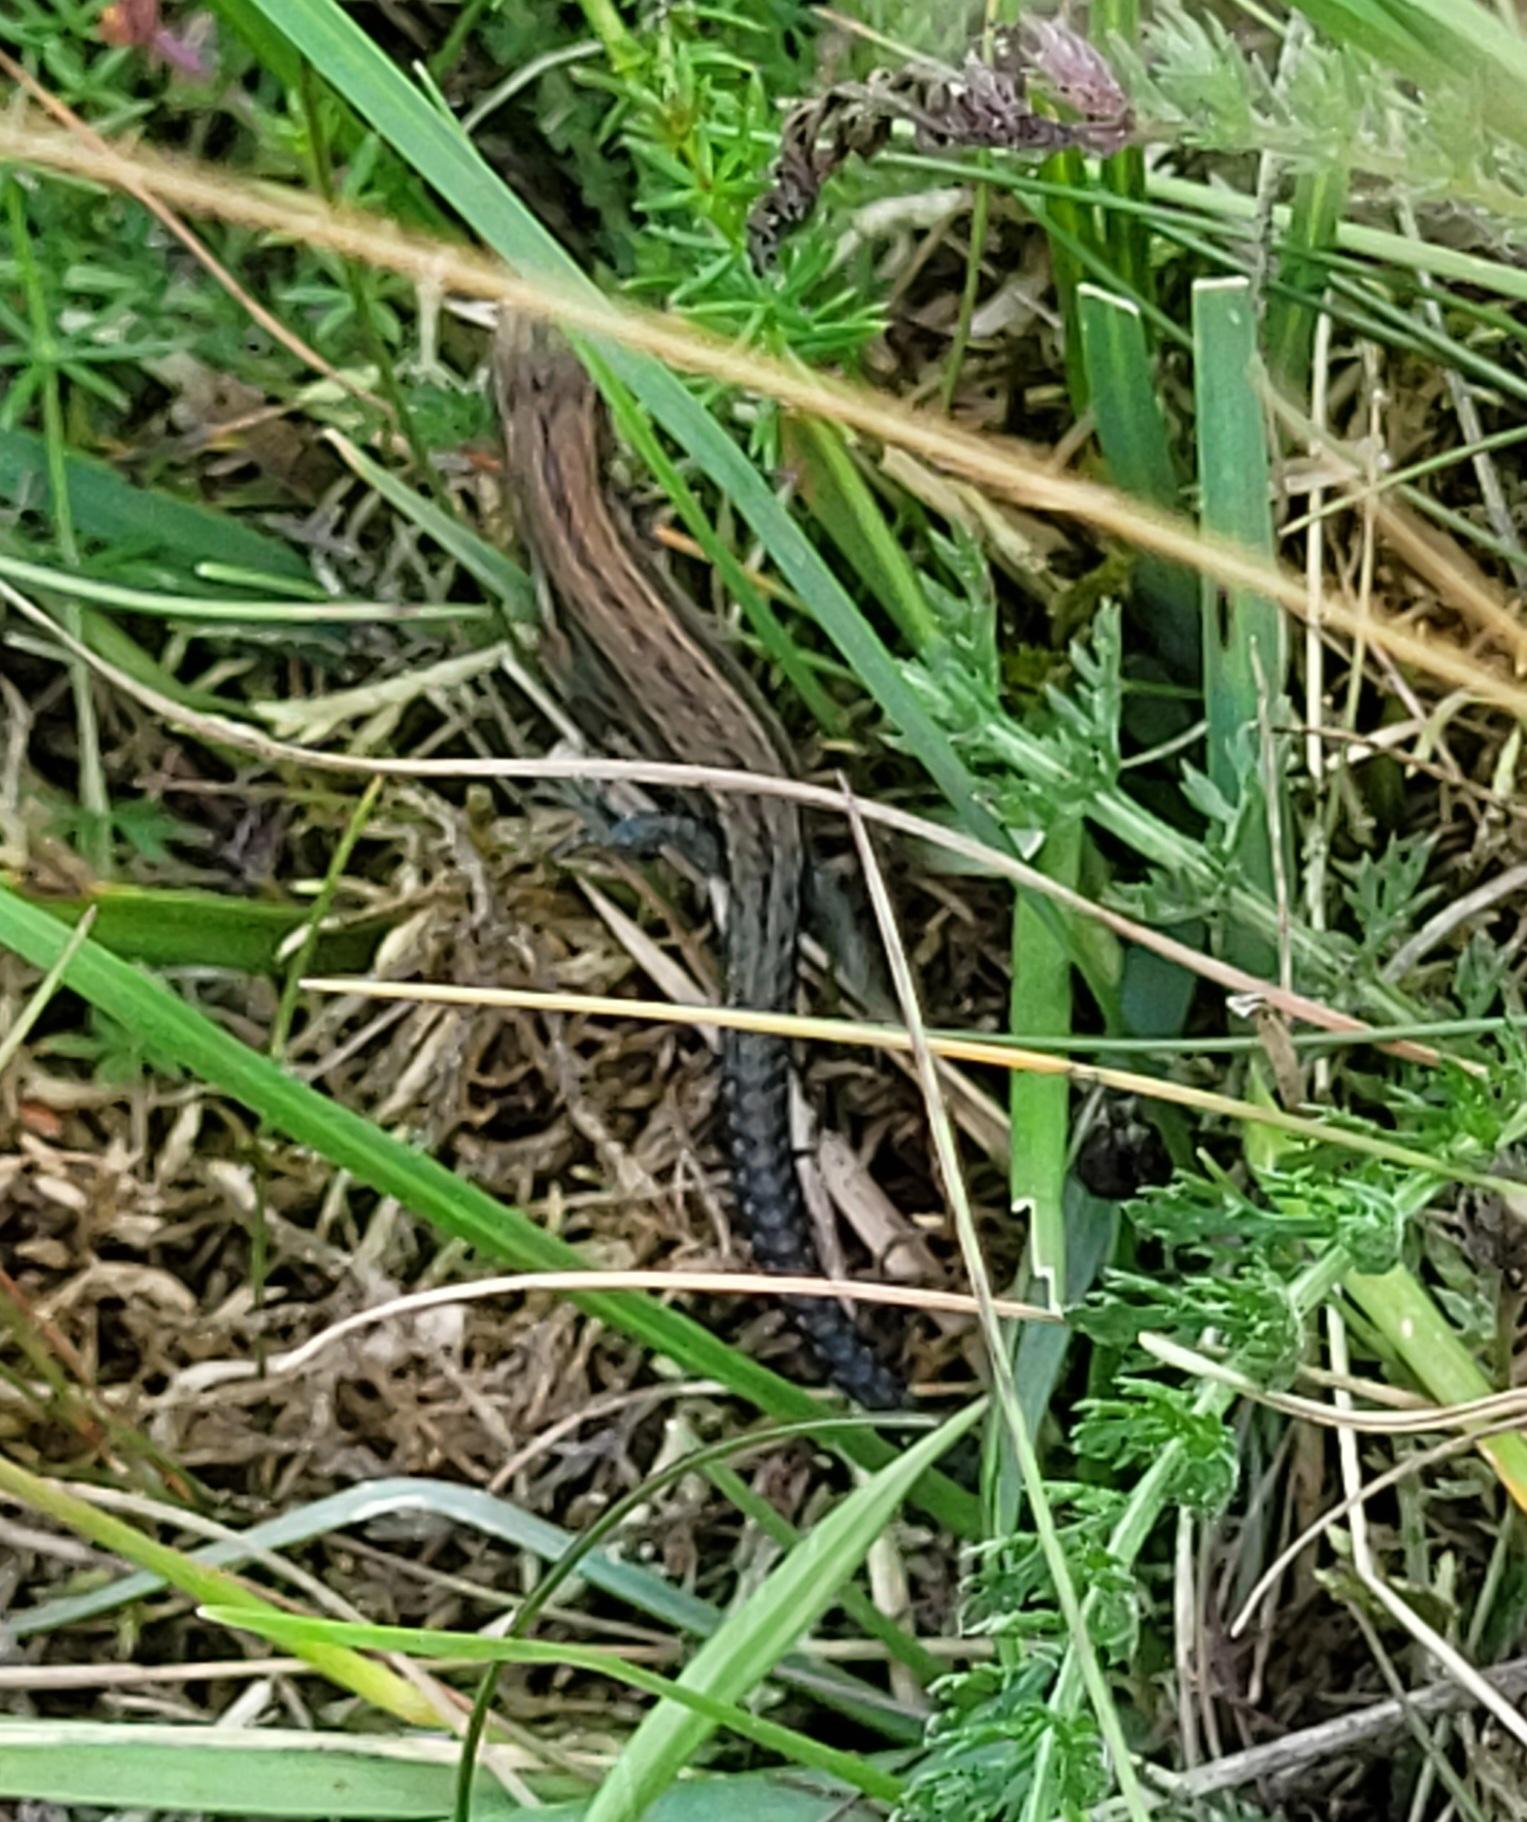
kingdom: Animalia
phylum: Chordata
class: Squamata
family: Lacertidae
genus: Zootoca
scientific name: Zootoca vivipara
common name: Skovfirben
